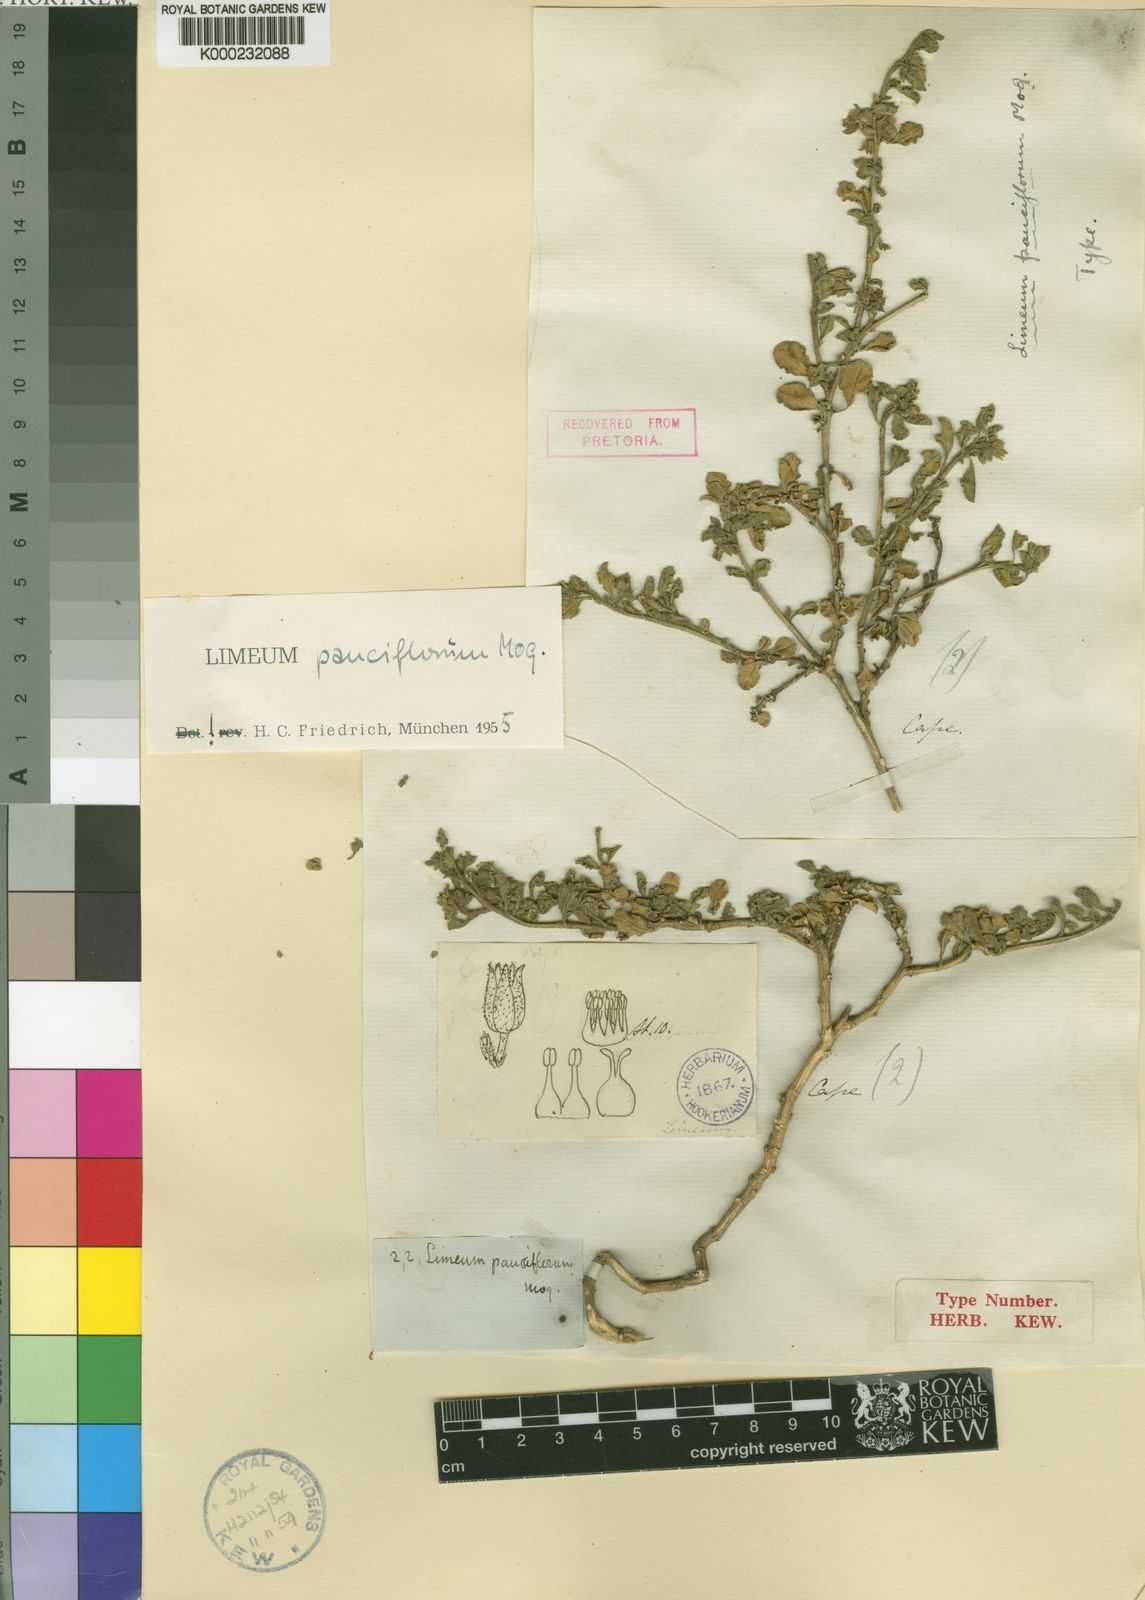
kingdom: Plantae
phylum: Tracheophyta
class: Magnoliopsida
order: Caryophyllales
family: Limeaceae
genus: Limeum
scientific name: Limeum pauciflorum
